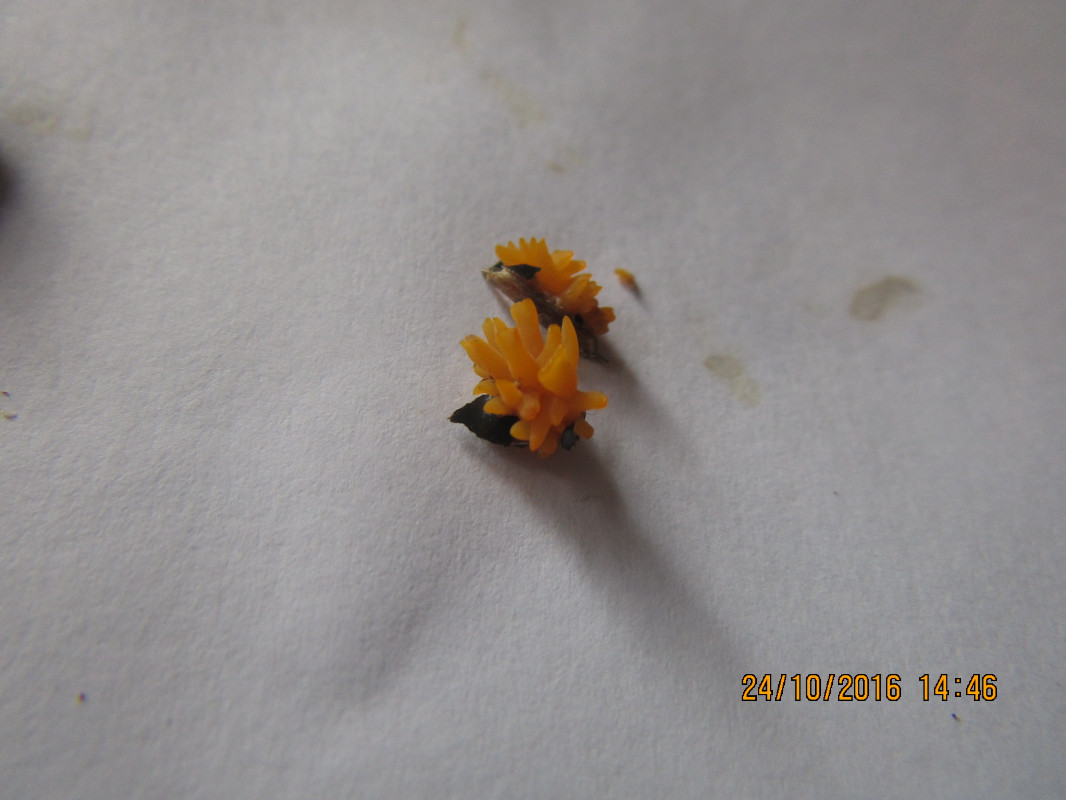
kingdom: Fungi
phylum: Basidiomycota
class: Dacrymycetes
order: Dacrymycetales
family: Dacrymycetaceae
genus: Calocera
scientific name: Calocera cornea
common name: liden guldgaffel
